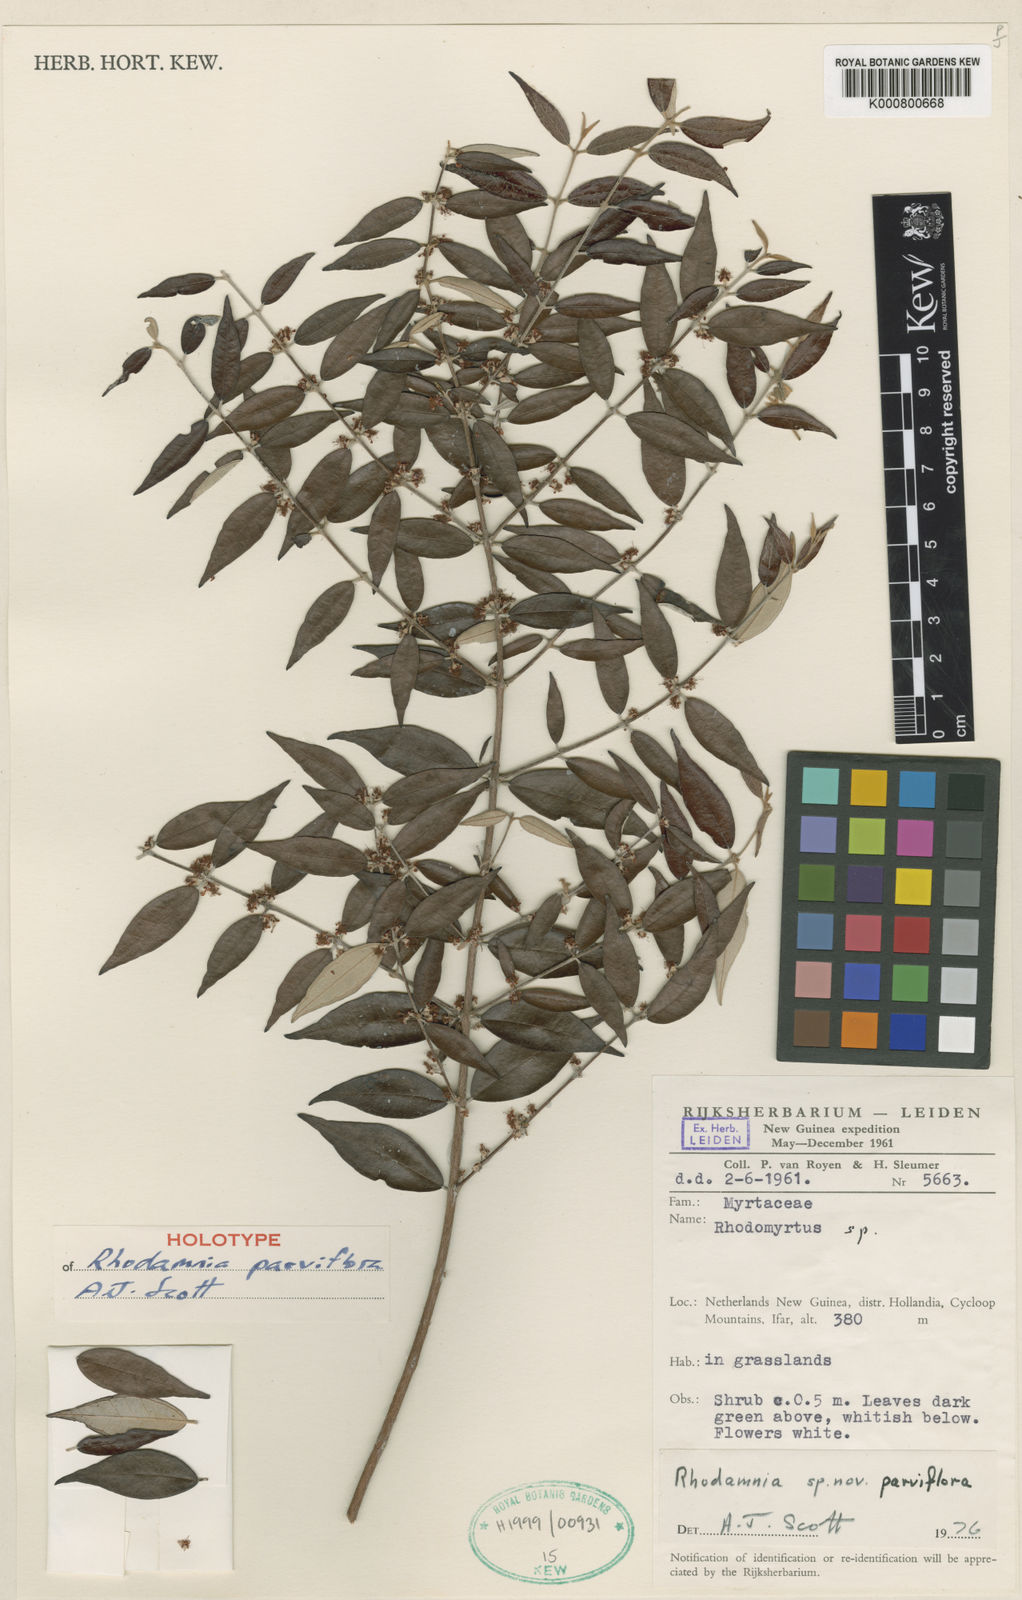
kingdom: Plantae
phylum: Tracheophyta
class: Magnoliopsida
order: Myrtales
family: Myrtaceae
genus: Rhodamnia
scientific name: Rhodamnia parviflora
